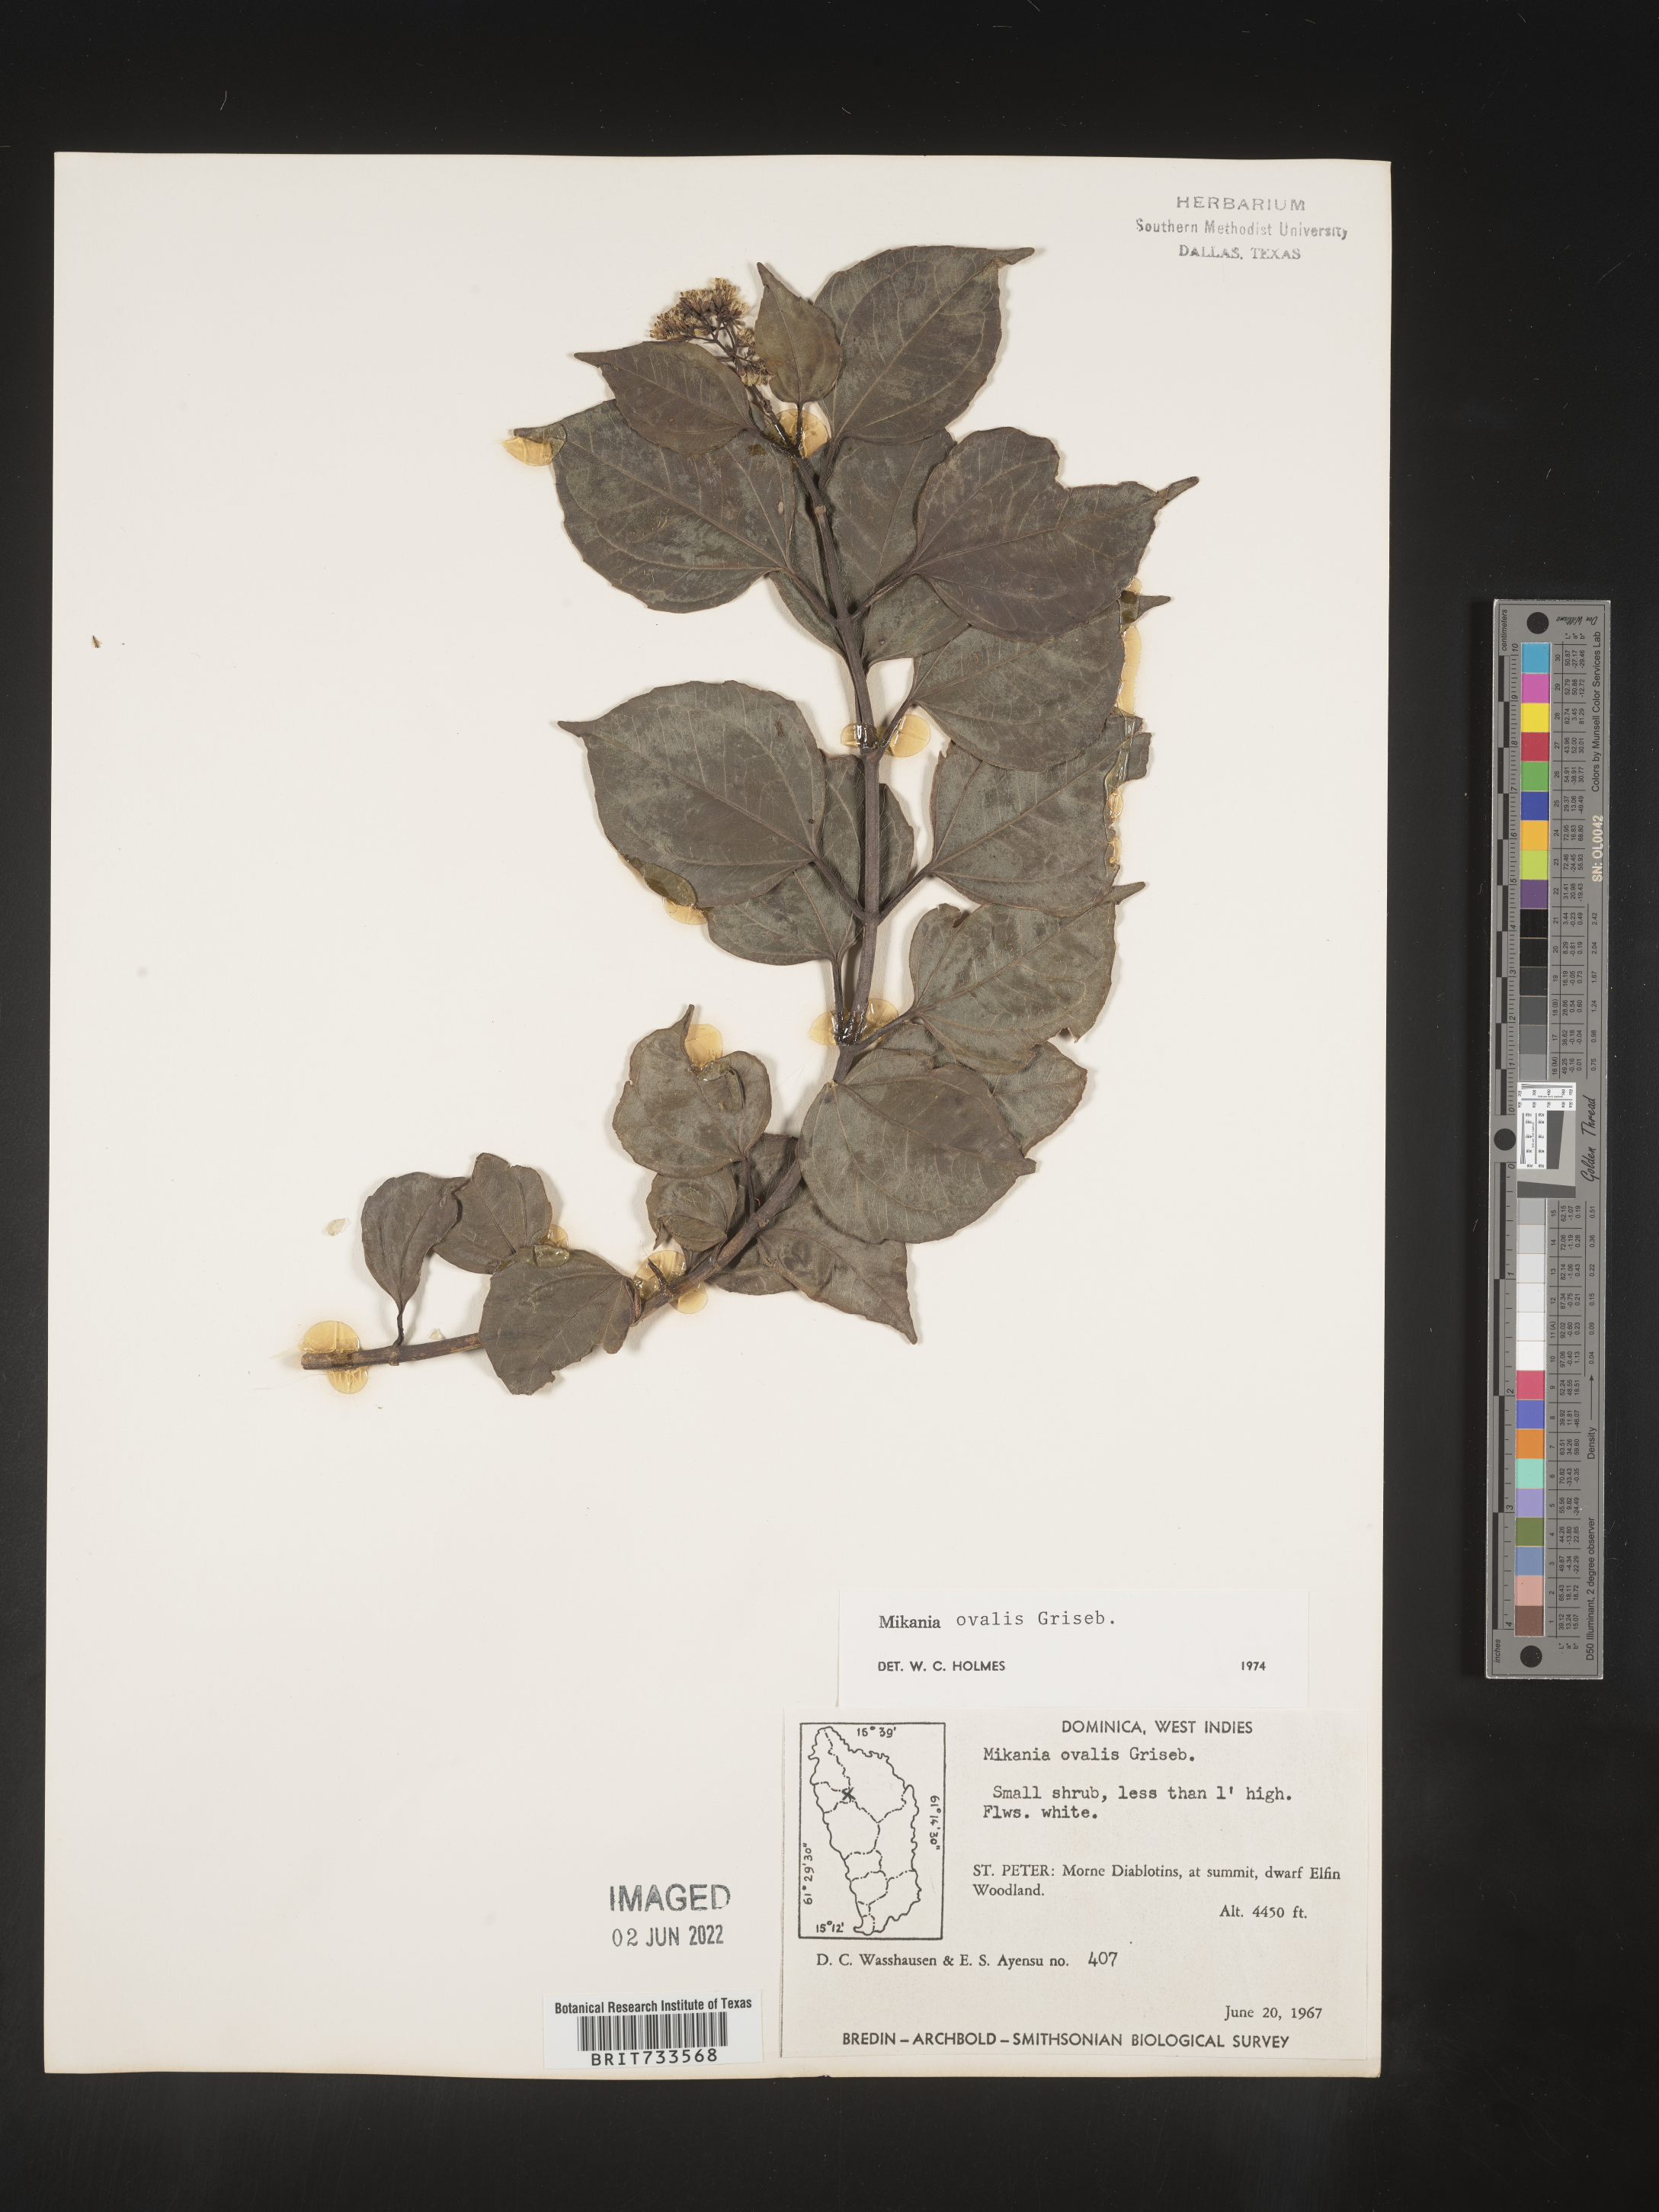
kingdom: Plantae
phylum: Tracheophyta
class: Magnoliopsida
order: Asterales
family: Asteraceae
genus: Mikania
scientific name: Mikania
